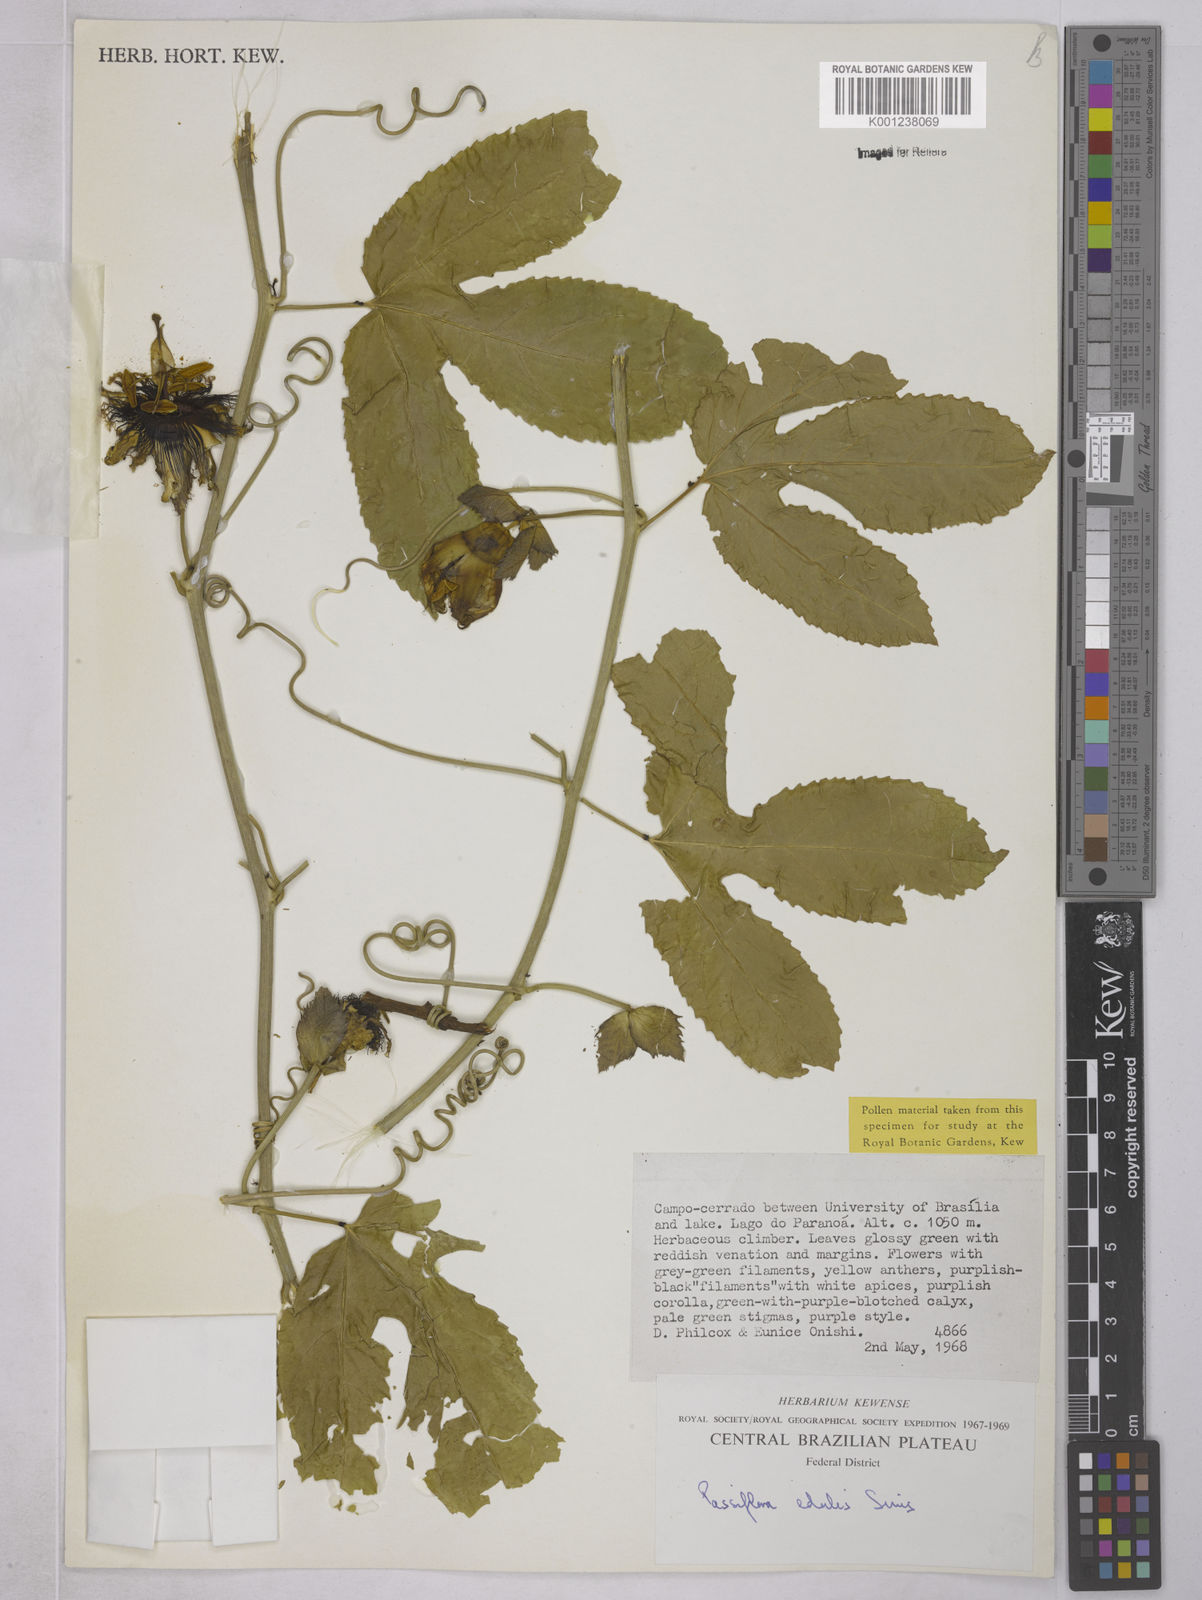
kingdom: Plantae
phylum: Tracheophyta
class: Magnoliopsida
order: Malpighiales
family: Passifloraceae
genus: Passiflora
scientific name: Passiflora edulis
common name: Purple granadilla
